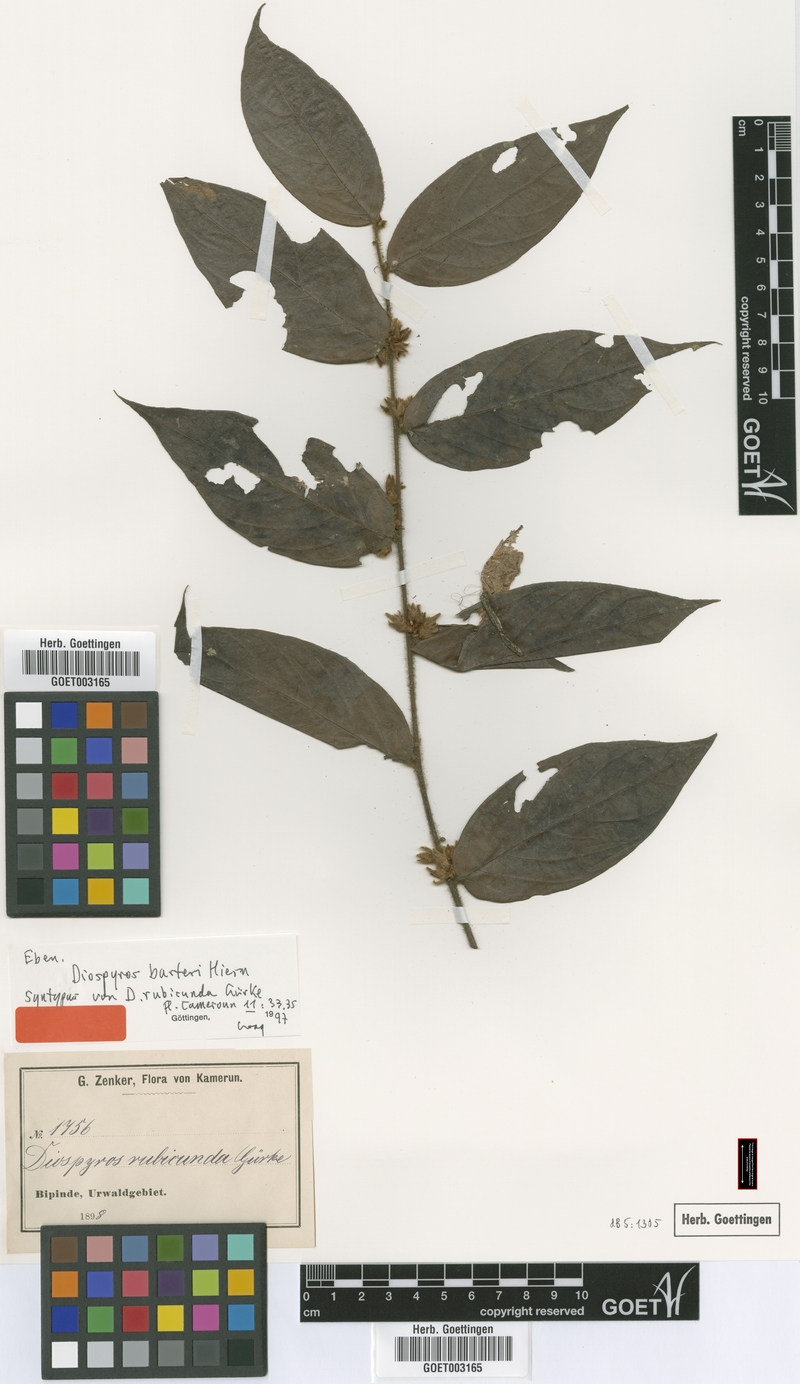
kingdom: Plantae
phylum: Tracheophyta
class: Magnoliopsida
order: Ericales
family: Ebenaceae
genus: Diospyros
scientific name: Diospyros barteri
